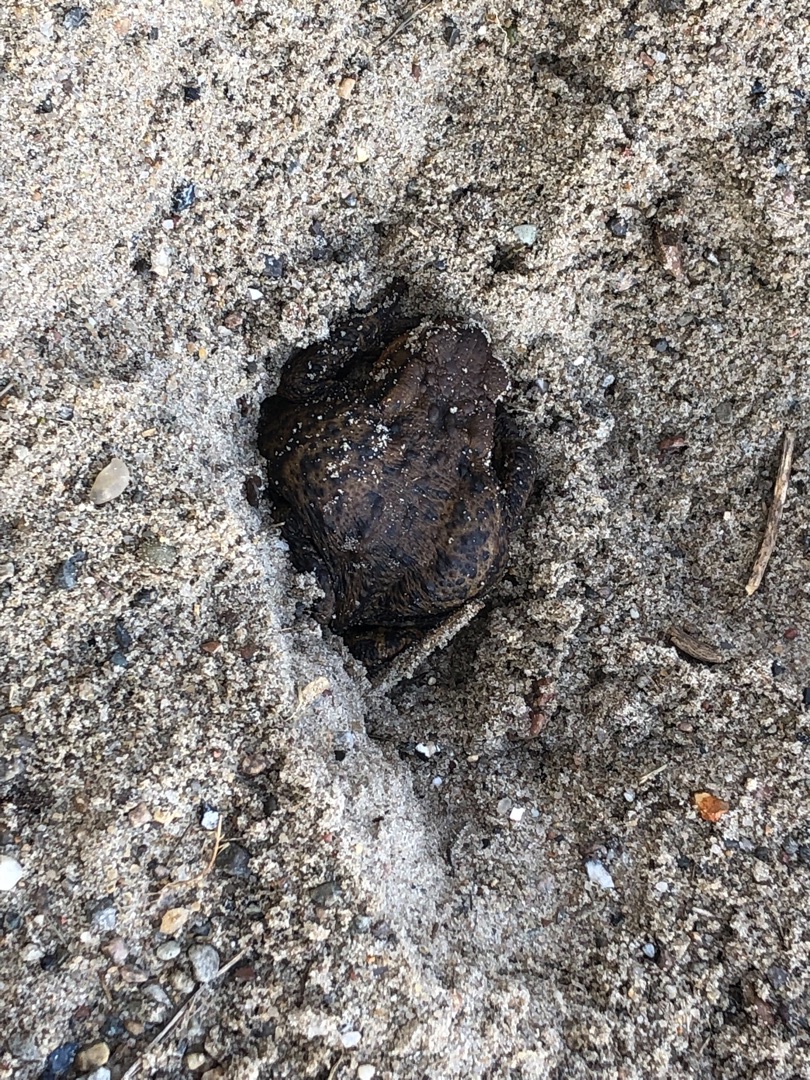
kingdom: Animalia
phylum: Chordata
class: Amphibia
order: Anura
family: Bufonidae
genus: Bufo
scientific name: Bufo bufo
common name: Skrubtudse
